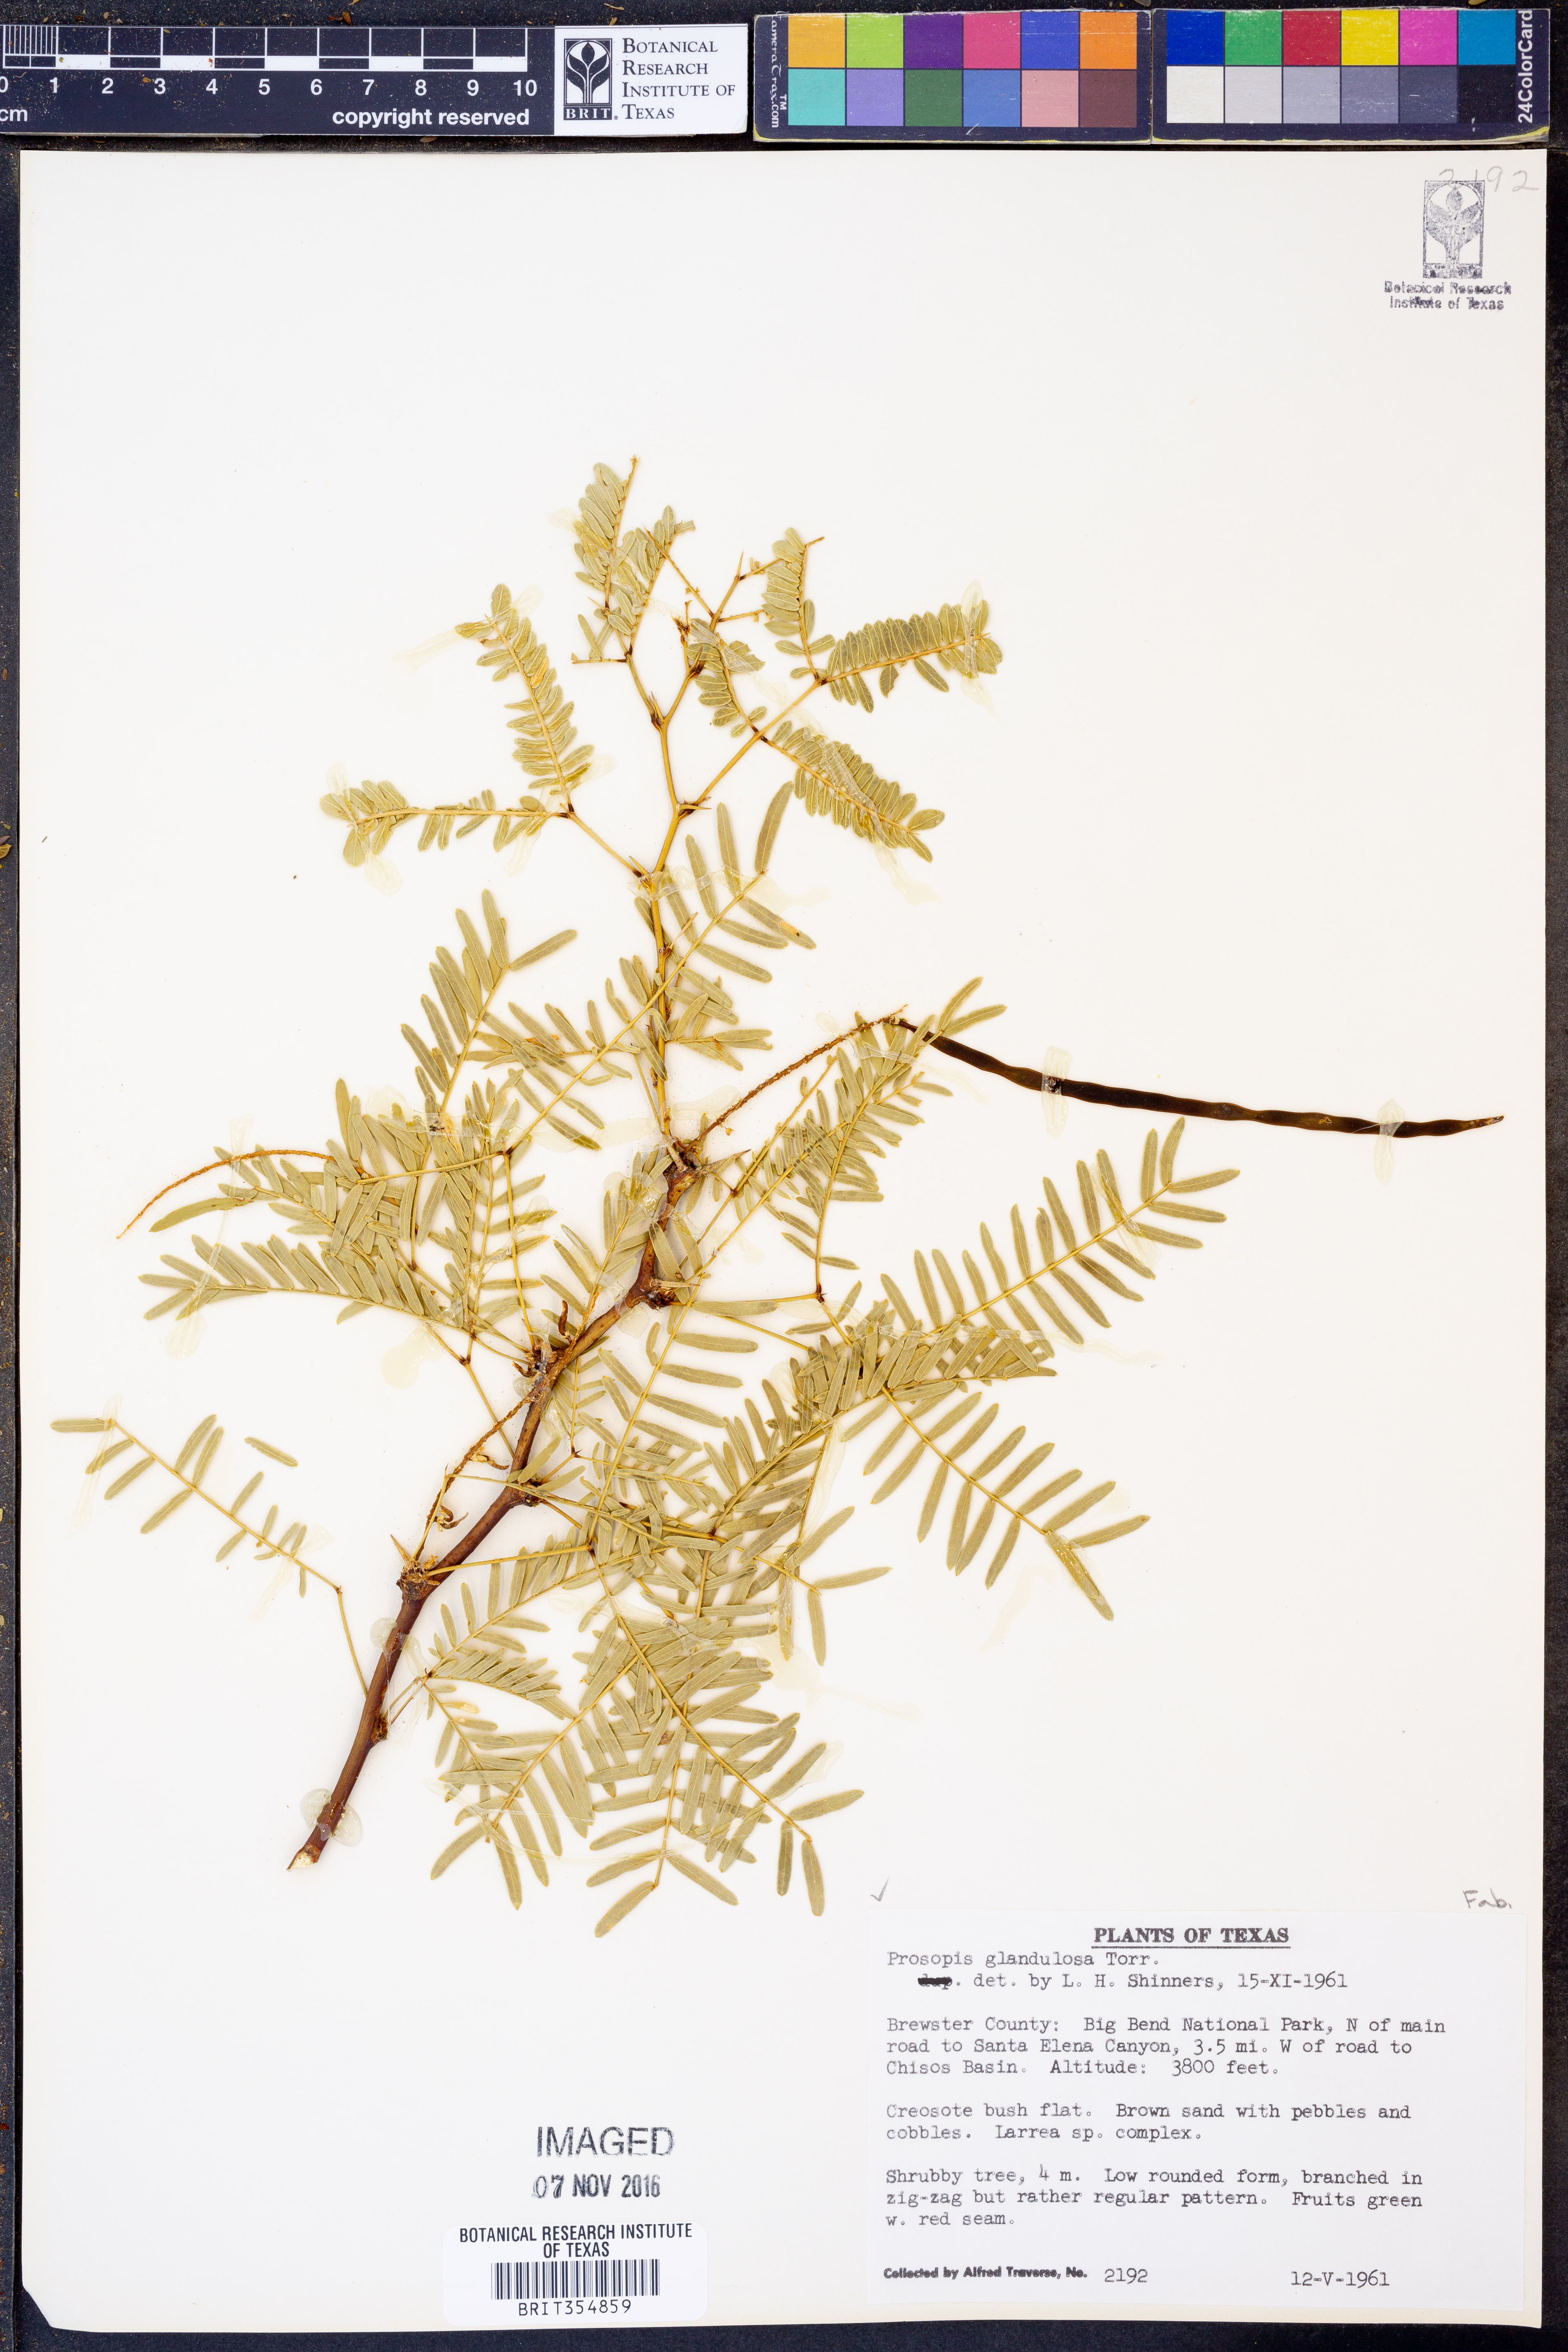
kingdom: Plantae
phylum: Tracheophyta
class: Magnoliopsida
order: Fabales
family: Fabaceae
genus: Prosopis
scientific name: Prosopis glandulosa
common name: Honey mesquite
